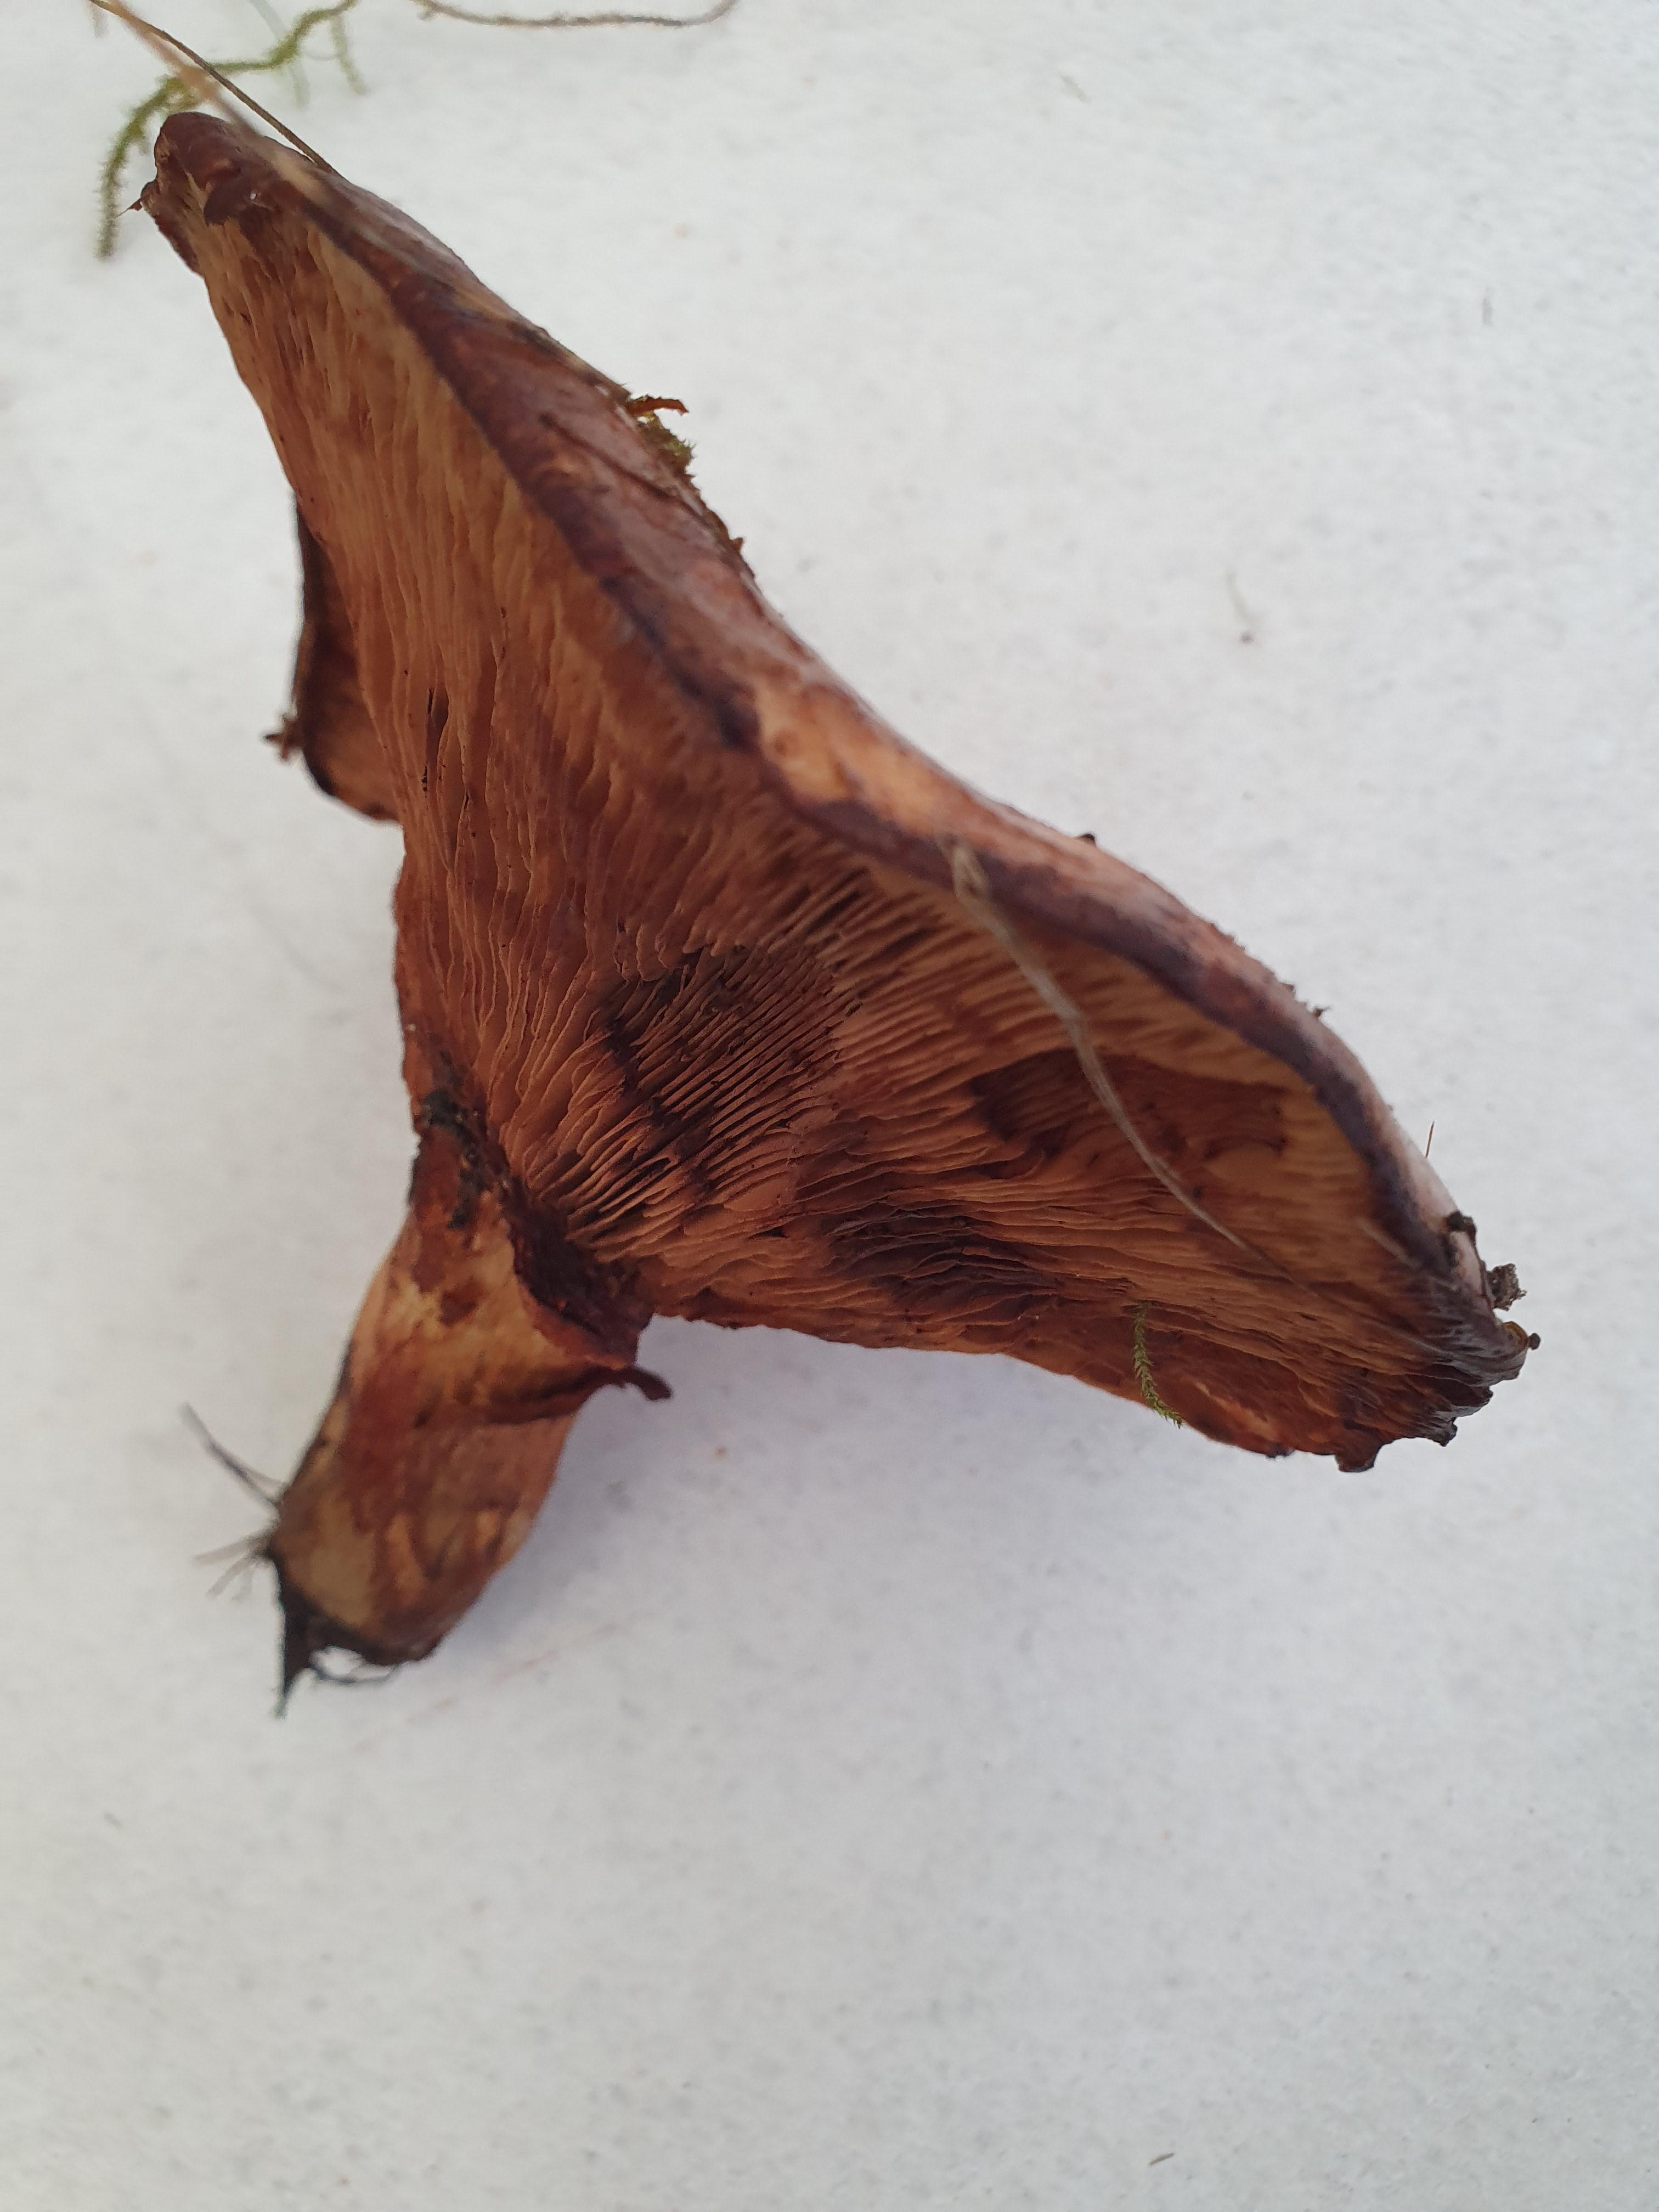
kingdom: Fungi
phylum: Basidiomycota
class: Agaricomycetes
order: Boletales
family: Paxillaceae
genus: Paxillus
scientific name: Paxillus
